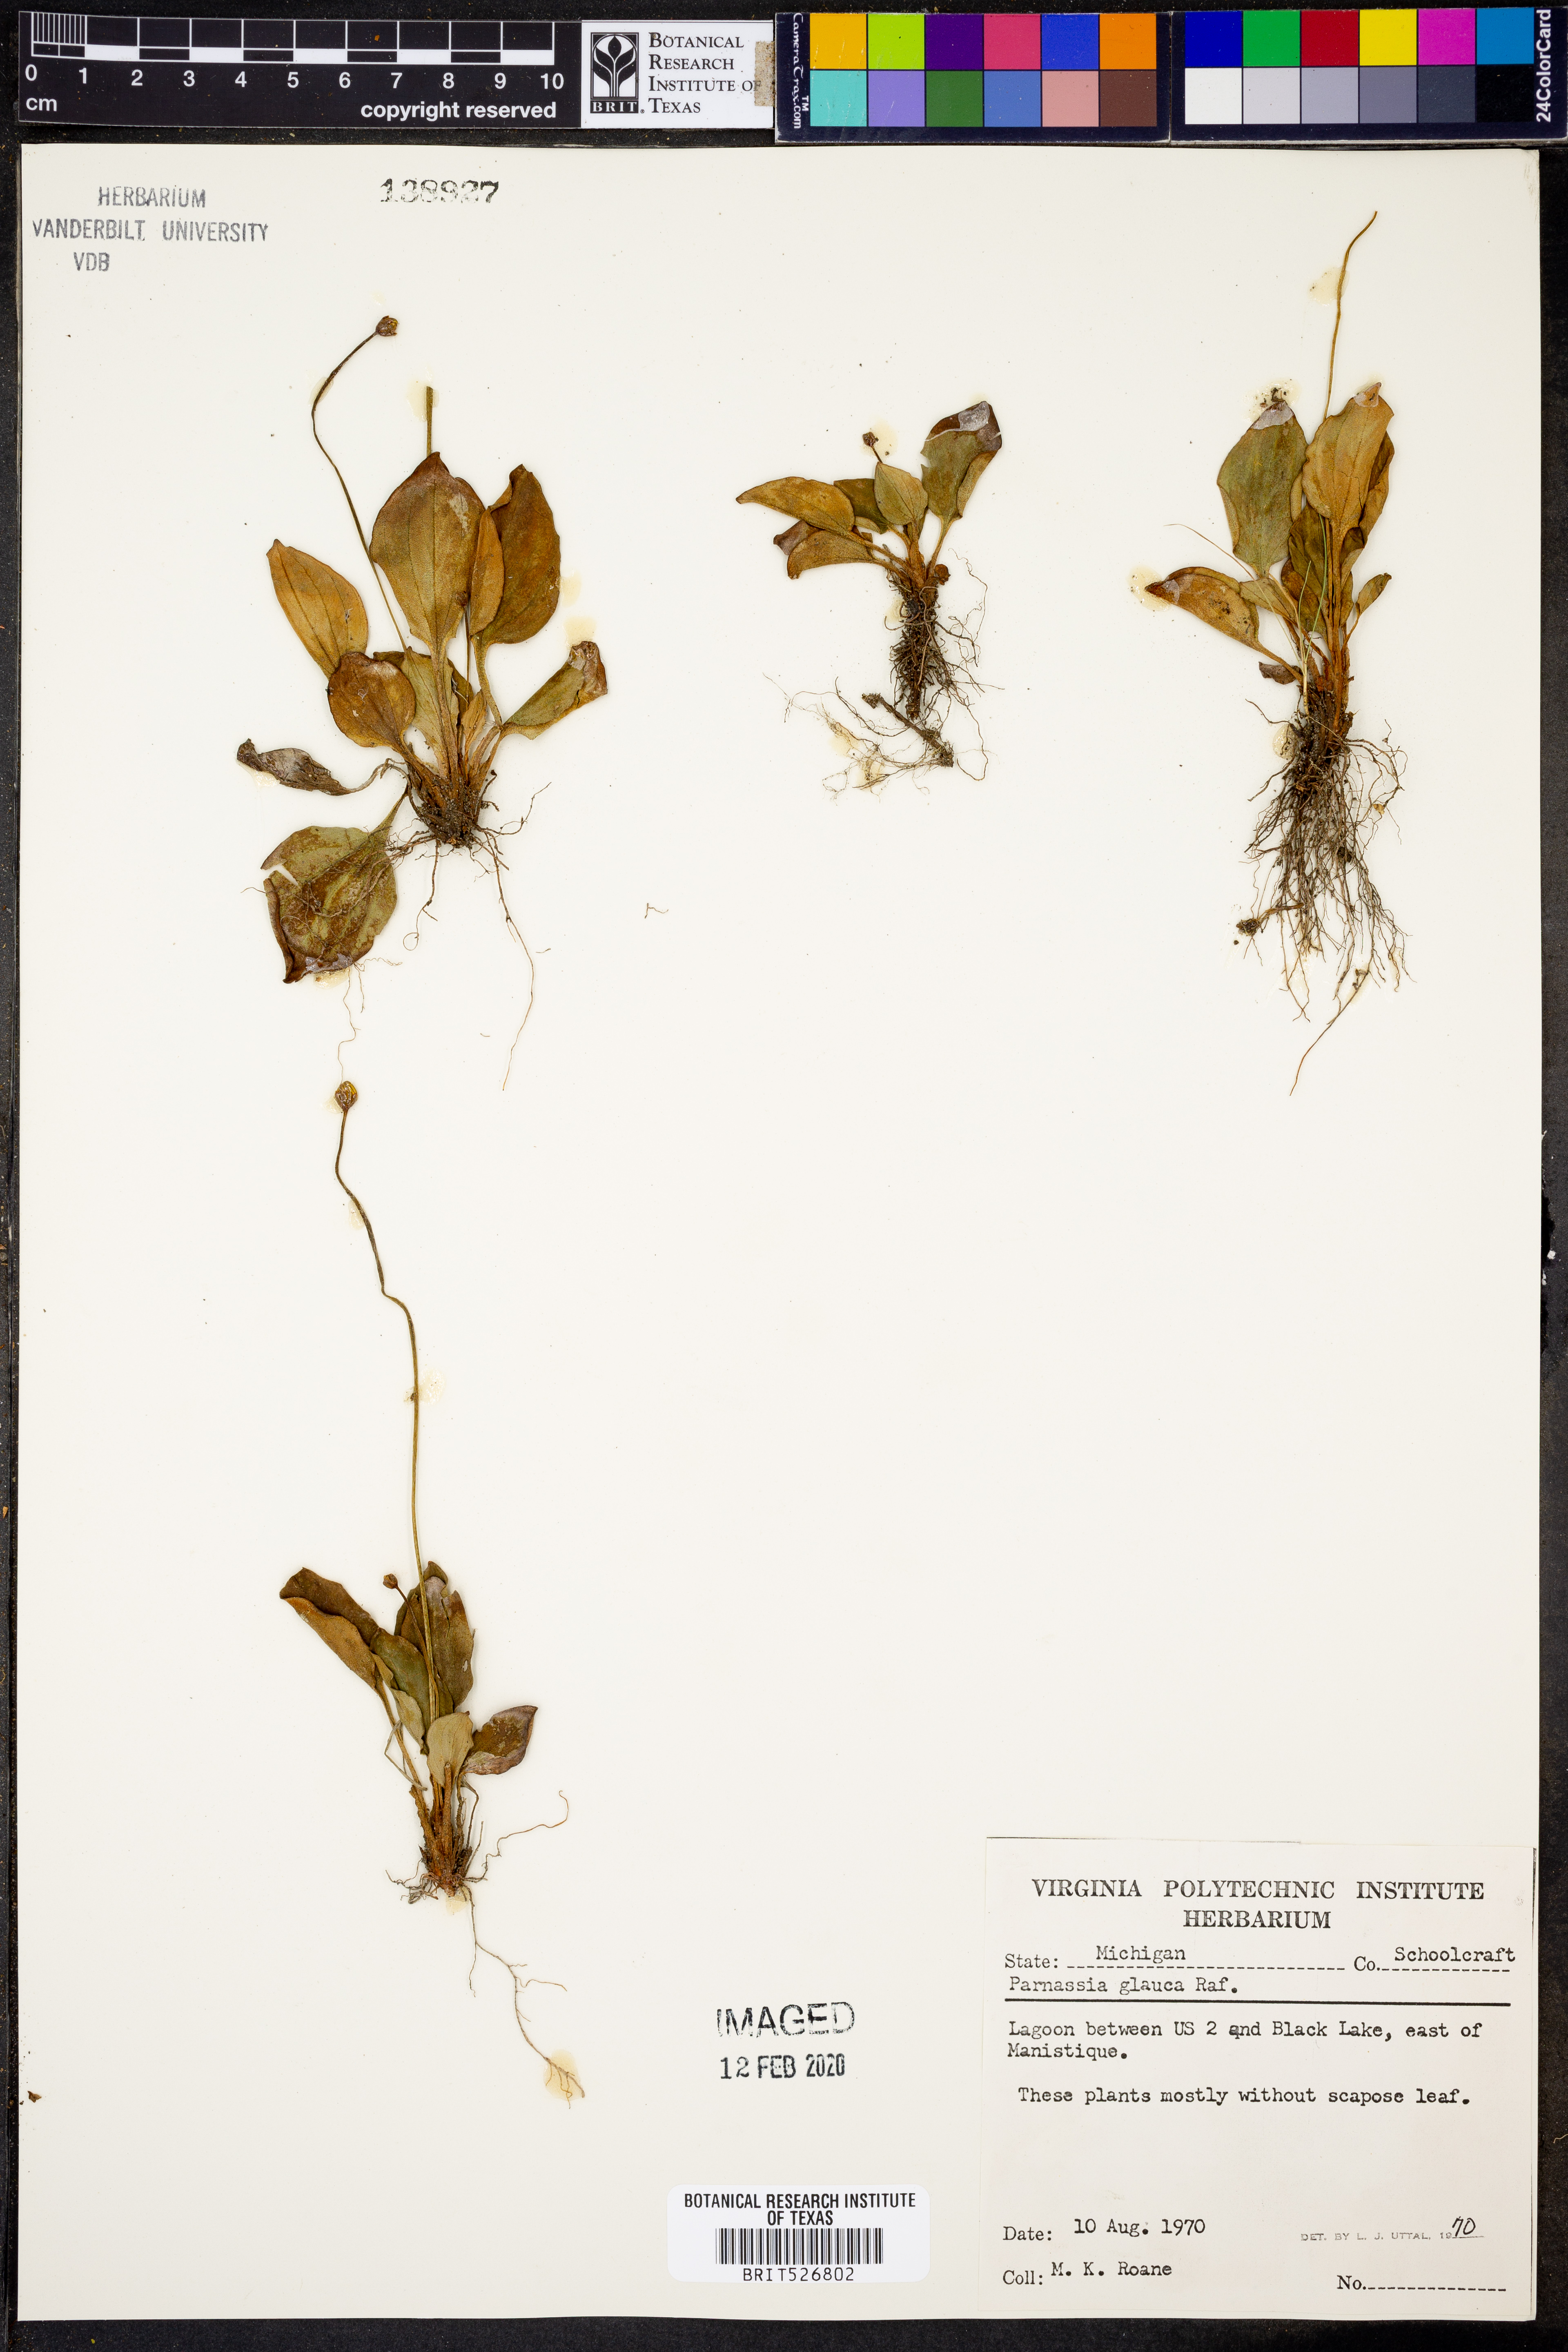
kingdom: Plantae
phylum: Tracheophyta
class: Magnoliopsida
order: Celastrales
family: Parnassiaceae
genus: Parnassia
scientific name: Parnassia glauca
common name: American grass-of-parnassus
